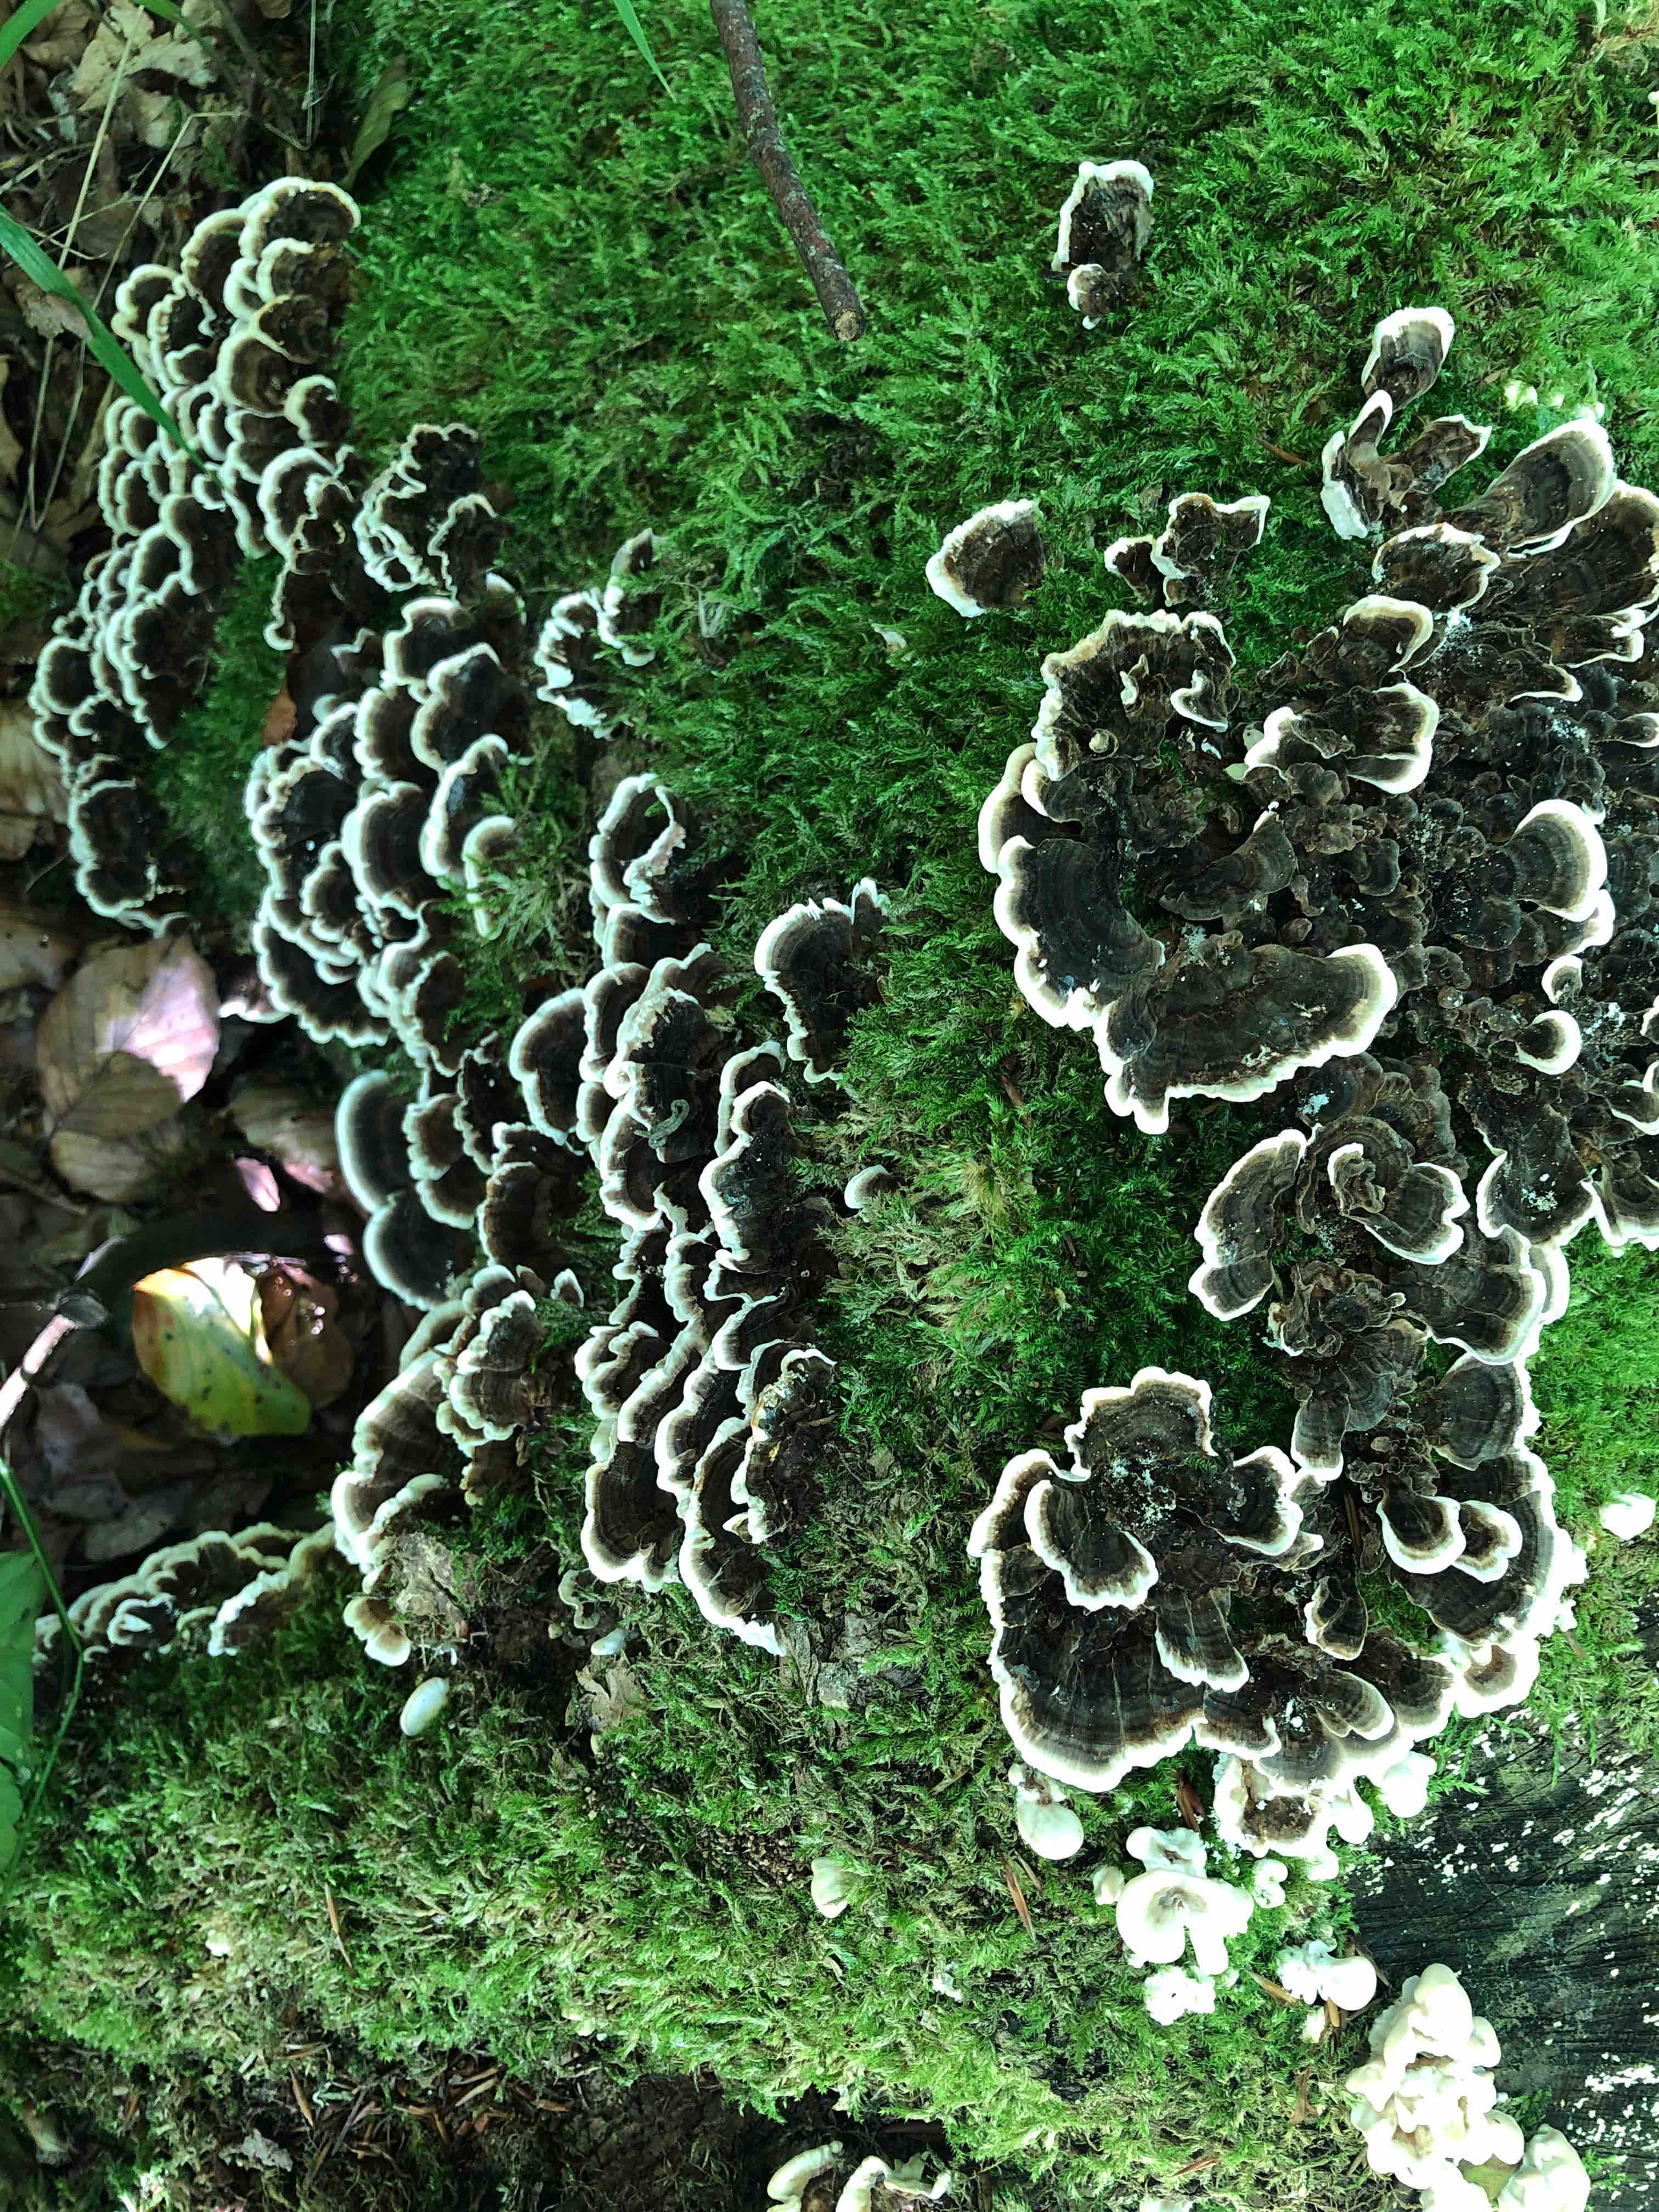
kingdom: Fungi
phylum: Basidiomycota
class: Agaricomycetes
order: Polyporales
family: Polyporaceae
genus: Trametes
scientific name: Trametes versicolor
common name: broget læderporesvamp
